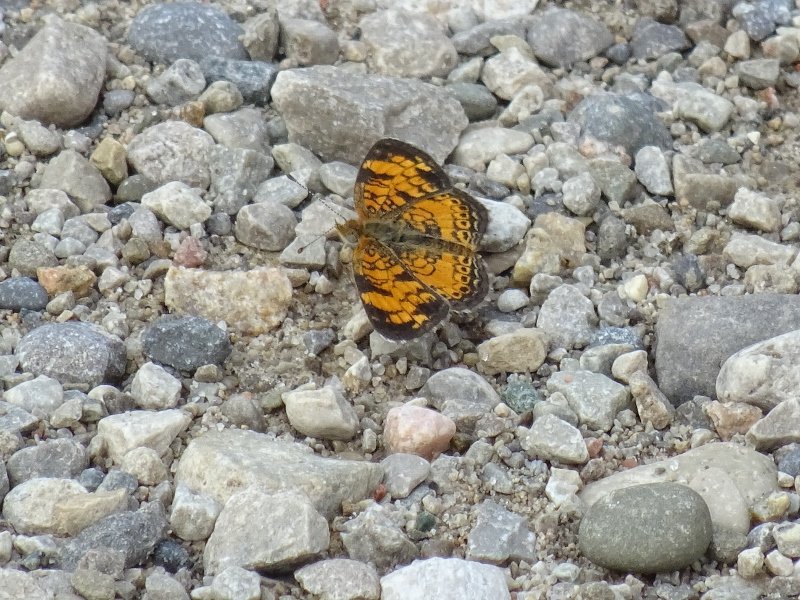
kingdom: Animalia
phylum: Arthropoda
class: Insecta
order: Lepidoptera
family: Nymphalidae
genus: Phyciodes
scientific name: Phyciodes tharos
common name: Pearl Crescent
